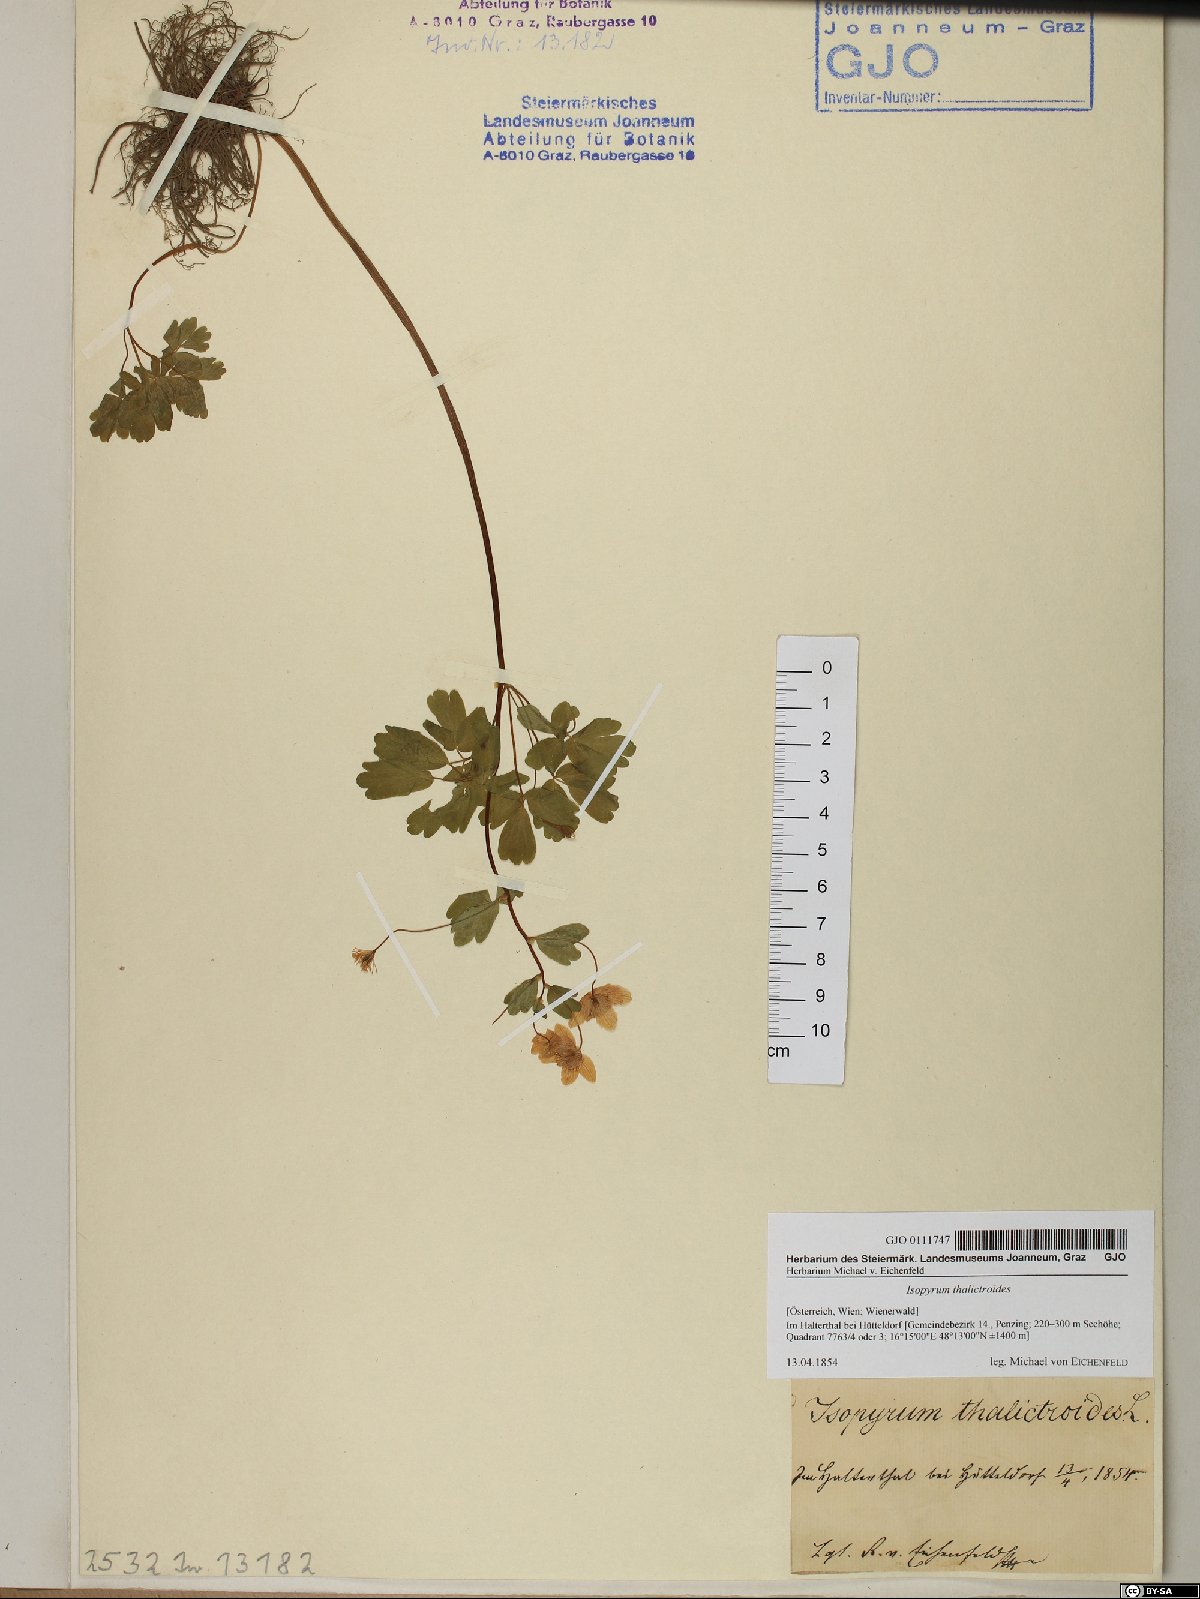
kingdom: Plantae
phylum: Tracheophyta
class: Magnoliopsida
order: Ranunculales
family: Ranunculaceae
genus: Isopyrum
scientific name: Isopyrum thalictroides
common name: Isopyrum
